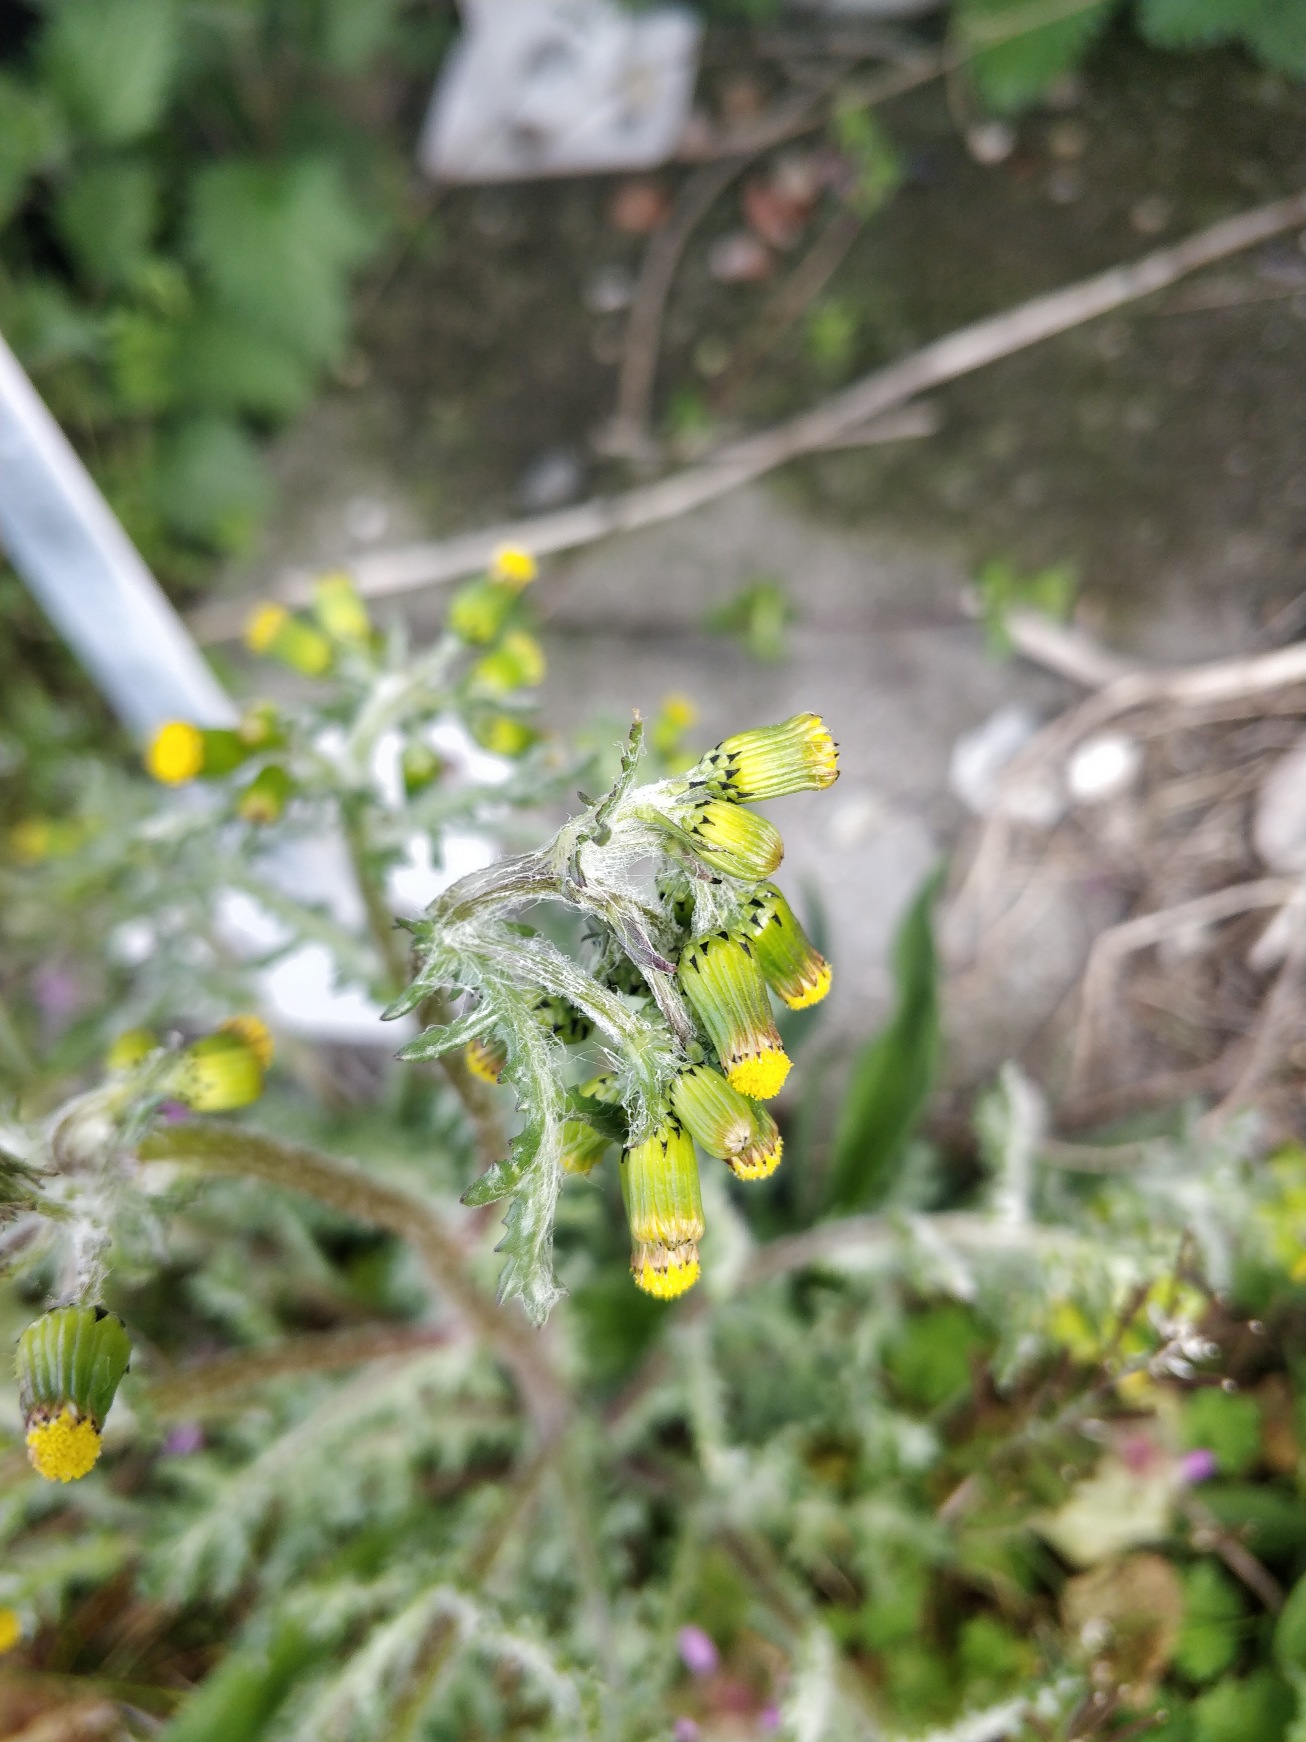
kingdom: Plantae
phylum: Tracheophyta
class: Magnoliopsida
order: Asterales
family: Asteraceae
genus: Senecio
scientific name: Senecio vulgaris
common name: Almindelig brandbæger
